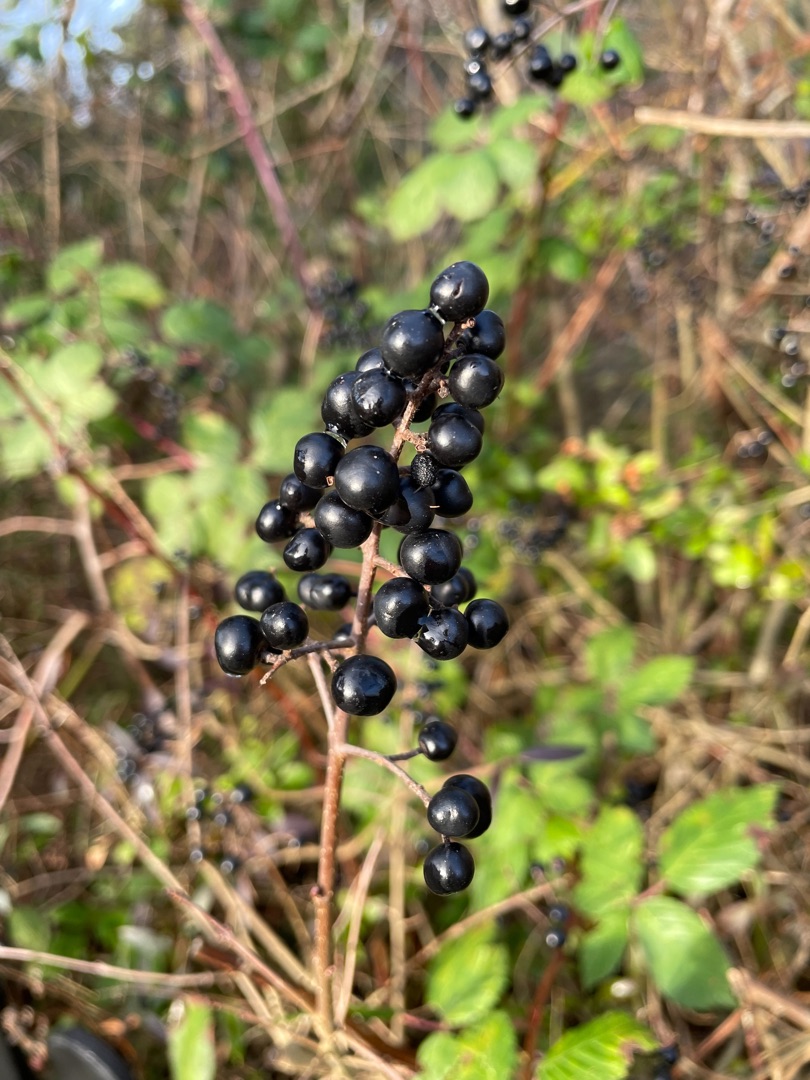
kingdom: Plantae
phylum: Tracheophyta
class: Magnoliopsida
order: Lamiales
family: Oleaceae
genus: Ligustrum
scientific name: Ligustrum vulgare
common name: Liguster
